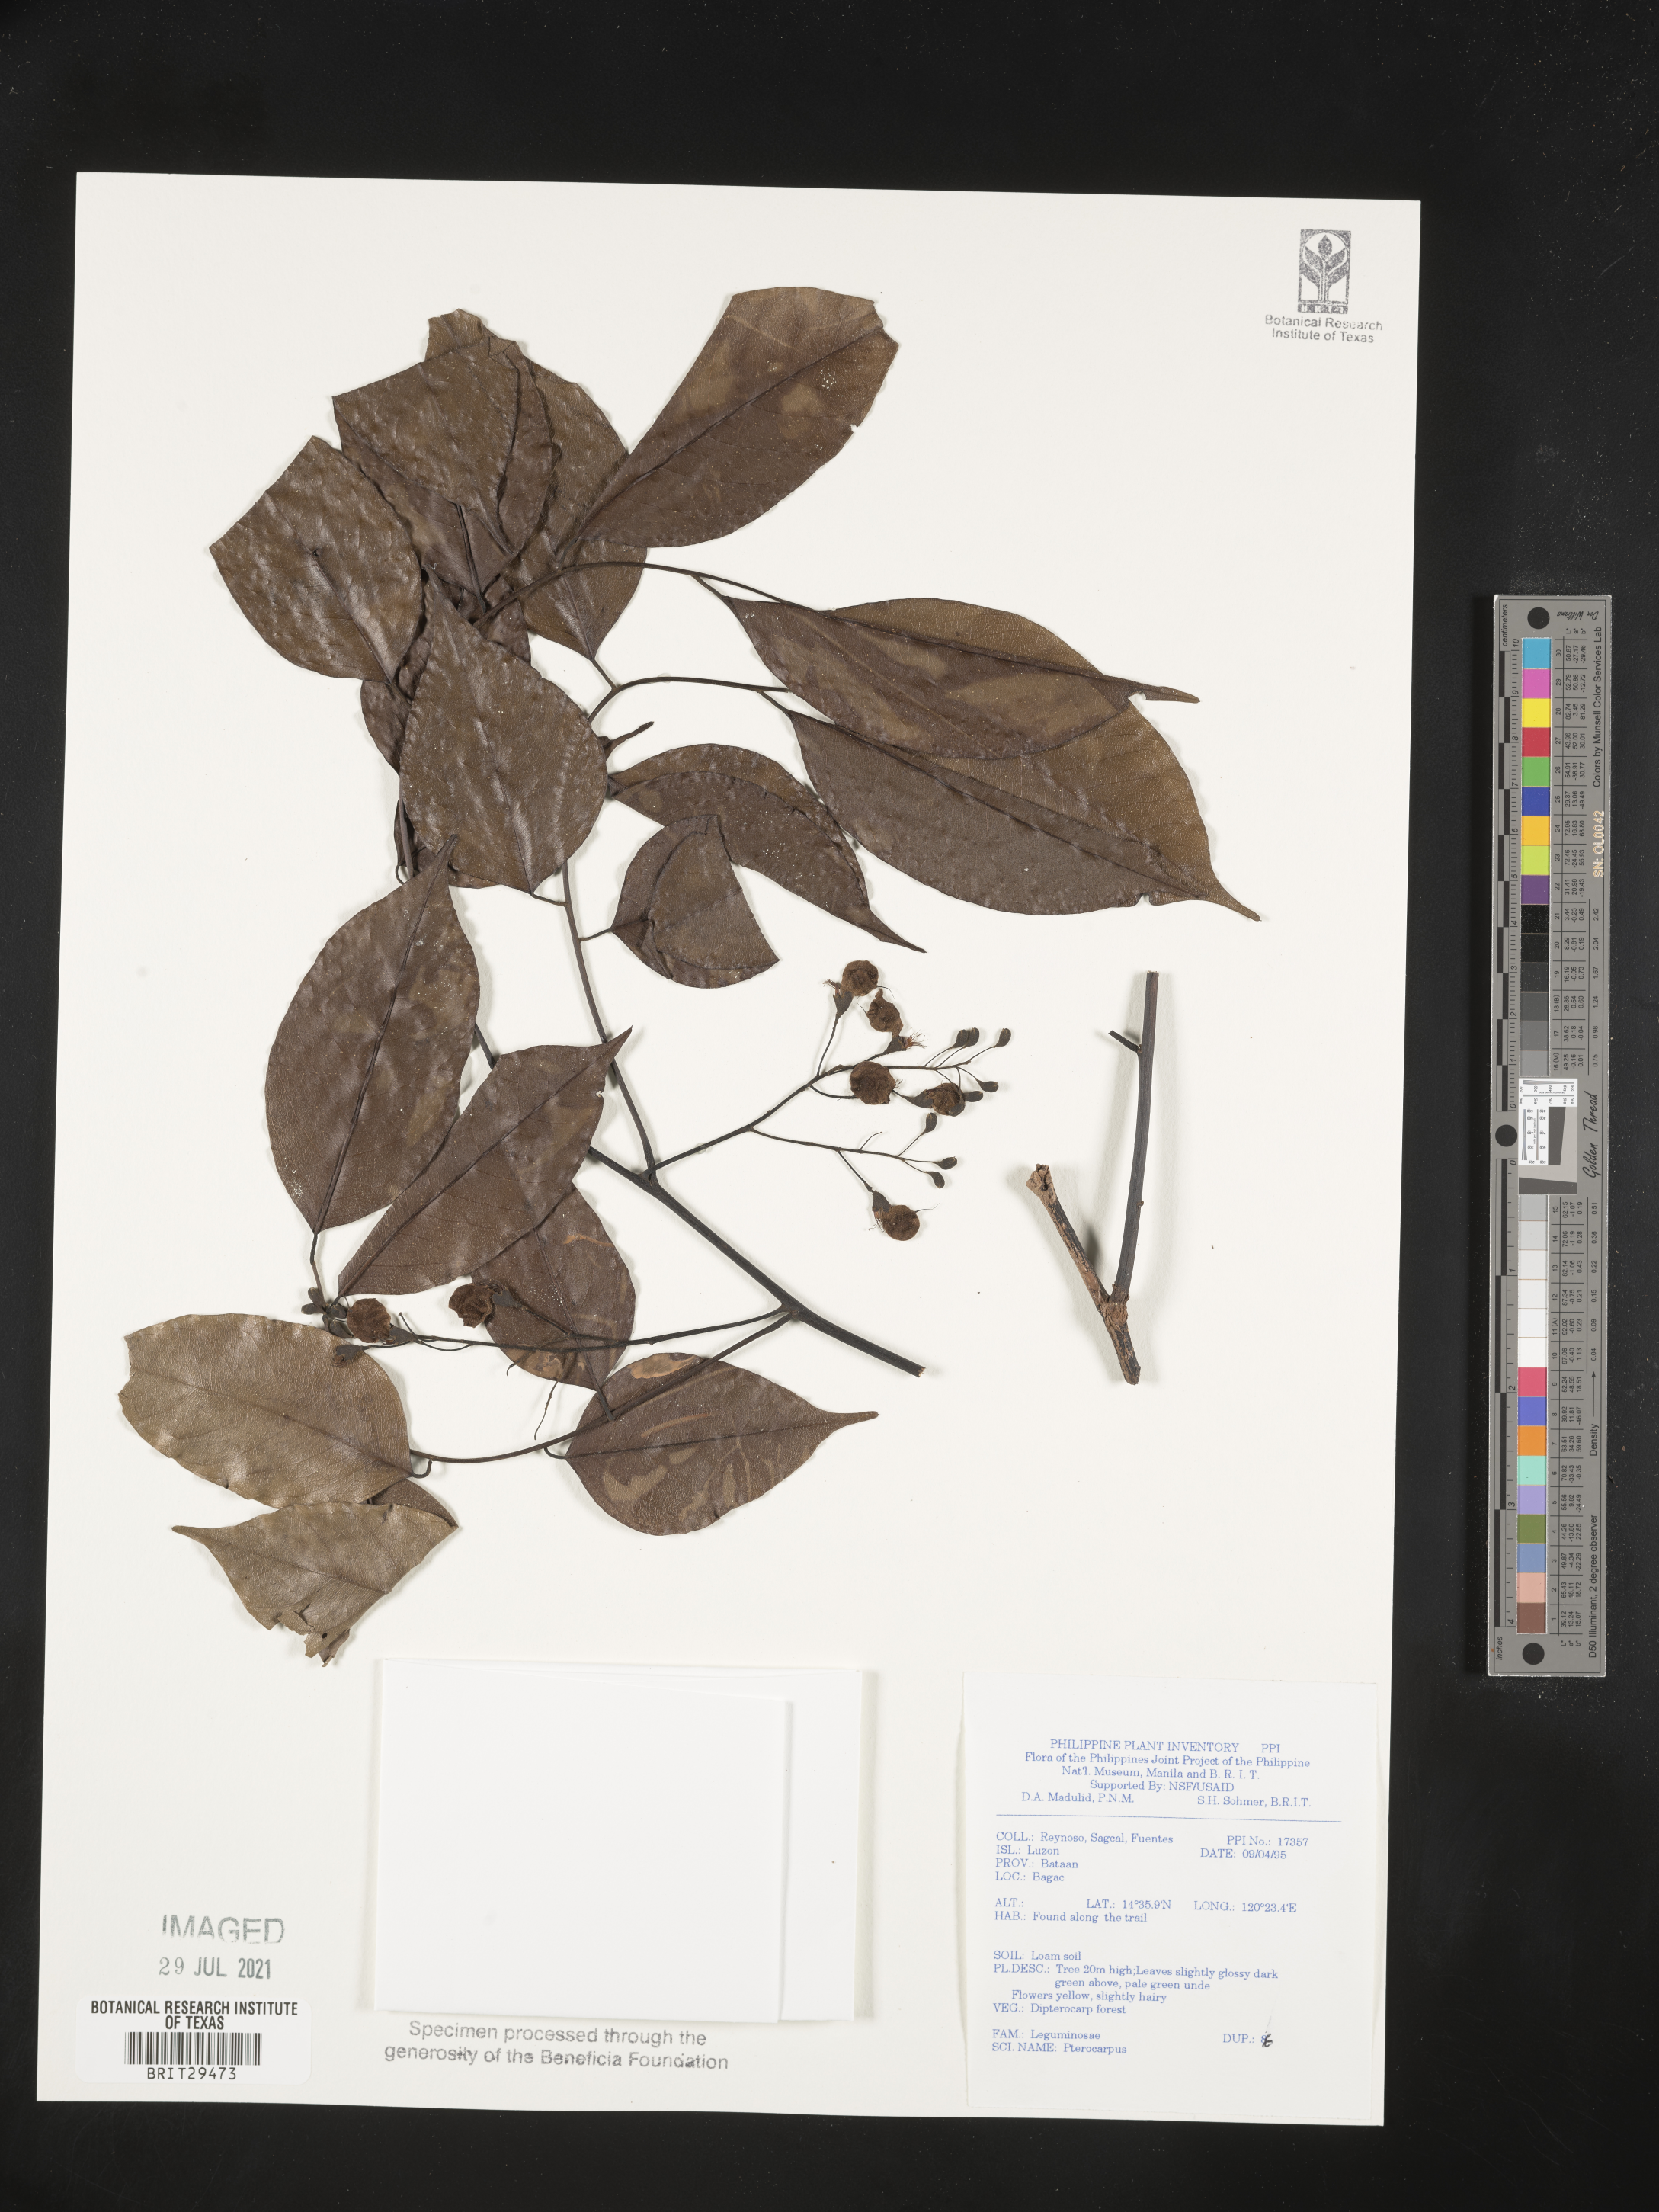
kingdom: Plantae
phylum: Tracheophyta
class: Magnoliopsida
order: Fabales
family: Fabaceae
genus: Pterocarpus
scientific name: Pterocarpus
